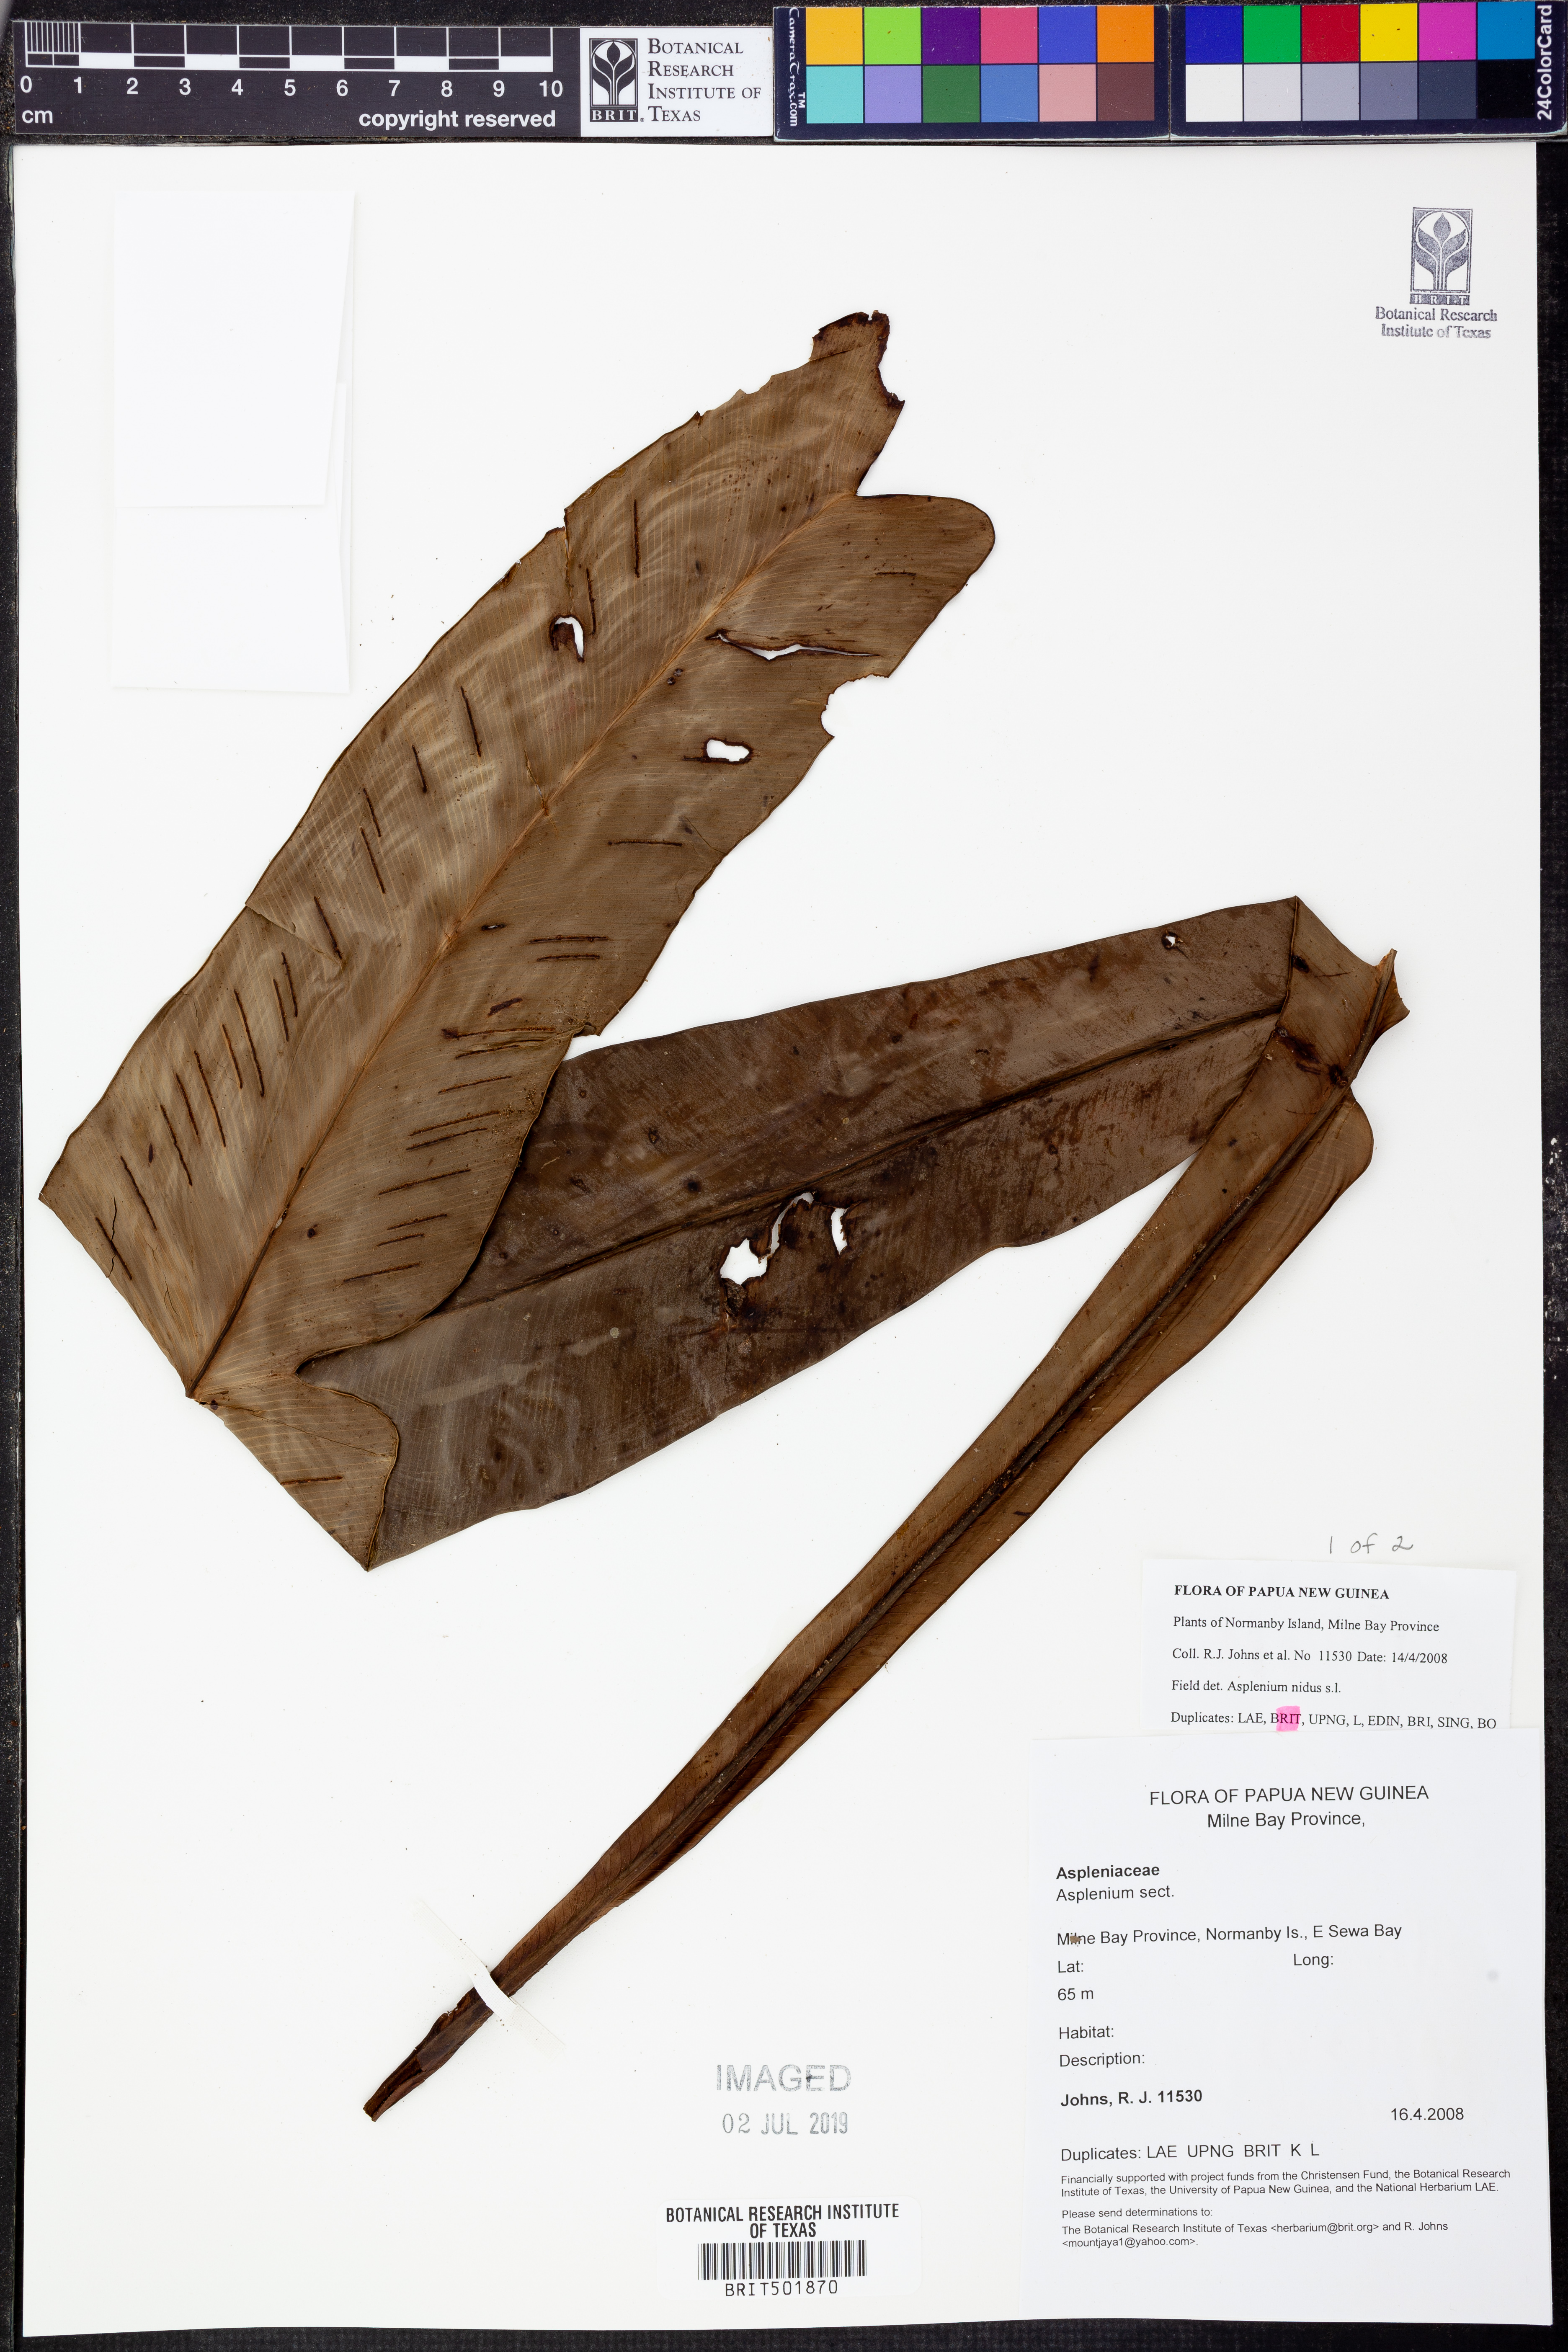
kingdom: Plantae
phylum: Tracheophyta
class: Polypodiopsida
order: Polypodiales
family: Aspleniaceae
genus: Asplenium
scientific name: Asplenium nidus
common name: Bird's-nest fern
